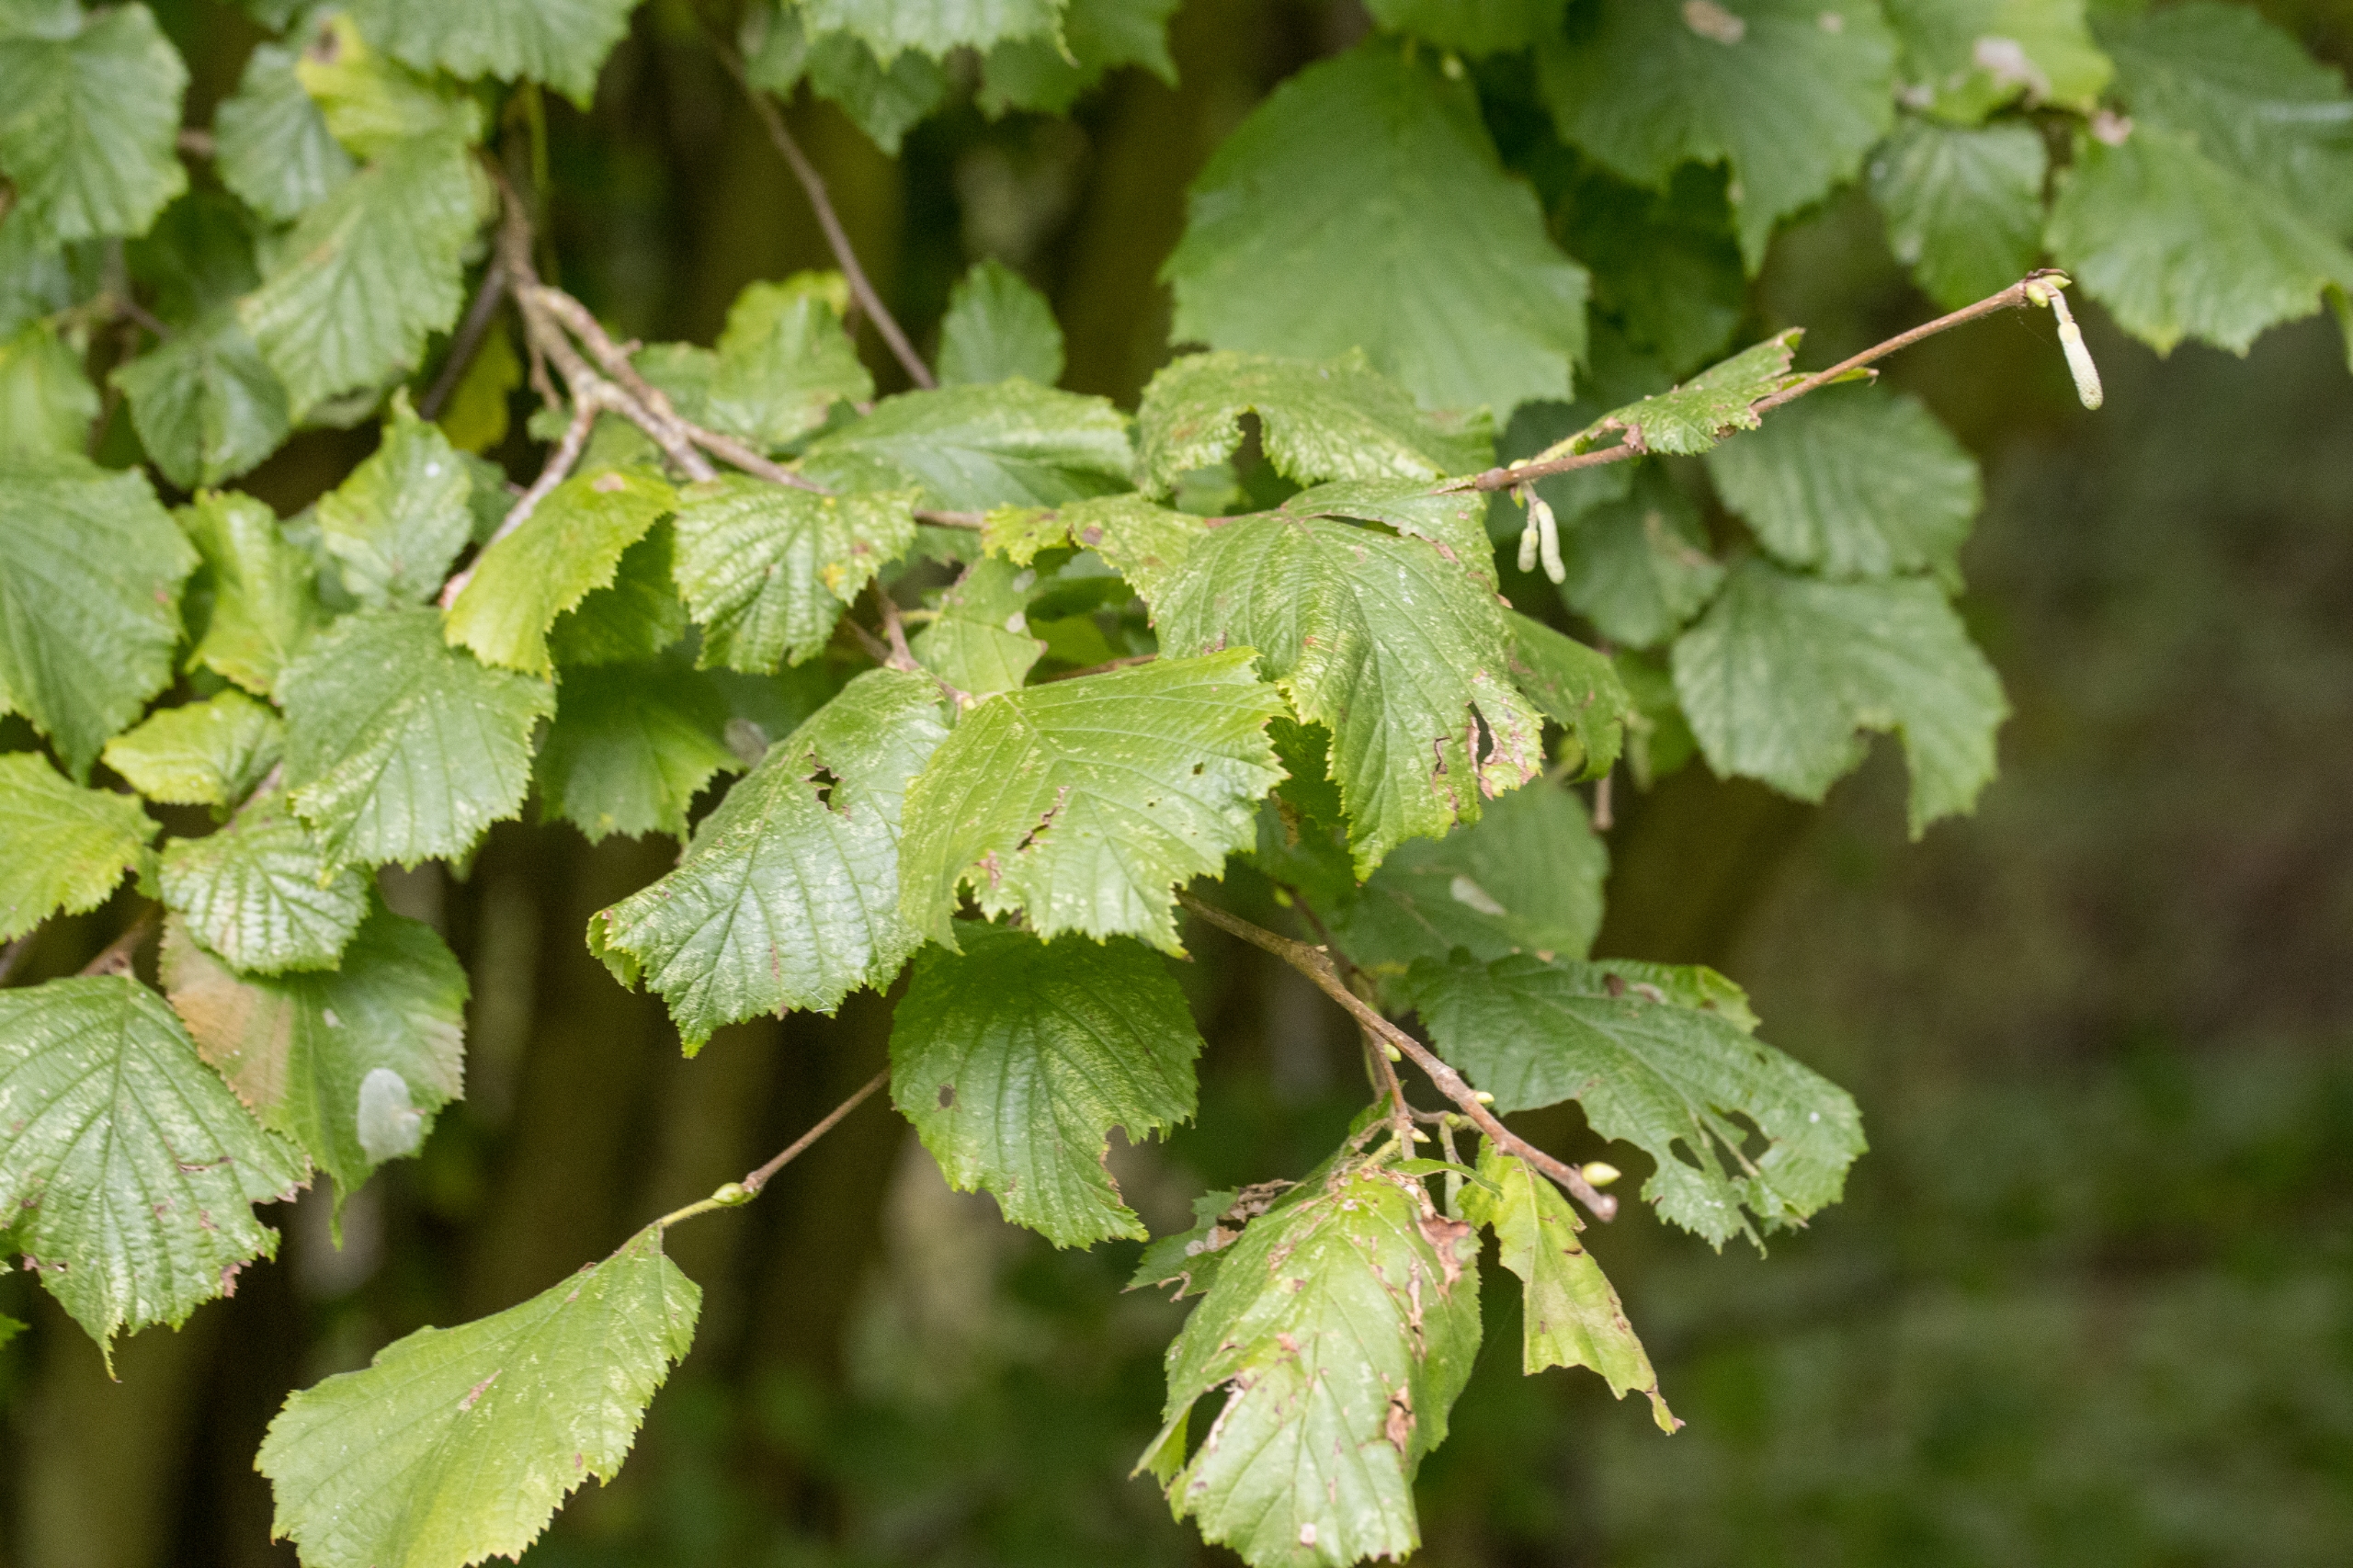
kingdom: Plantae
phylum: Tracheophyta
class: Magnoliopsida
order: Fagales
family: Betulaceae
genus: Corylus
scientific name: Corylus avellana
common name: Hassel
